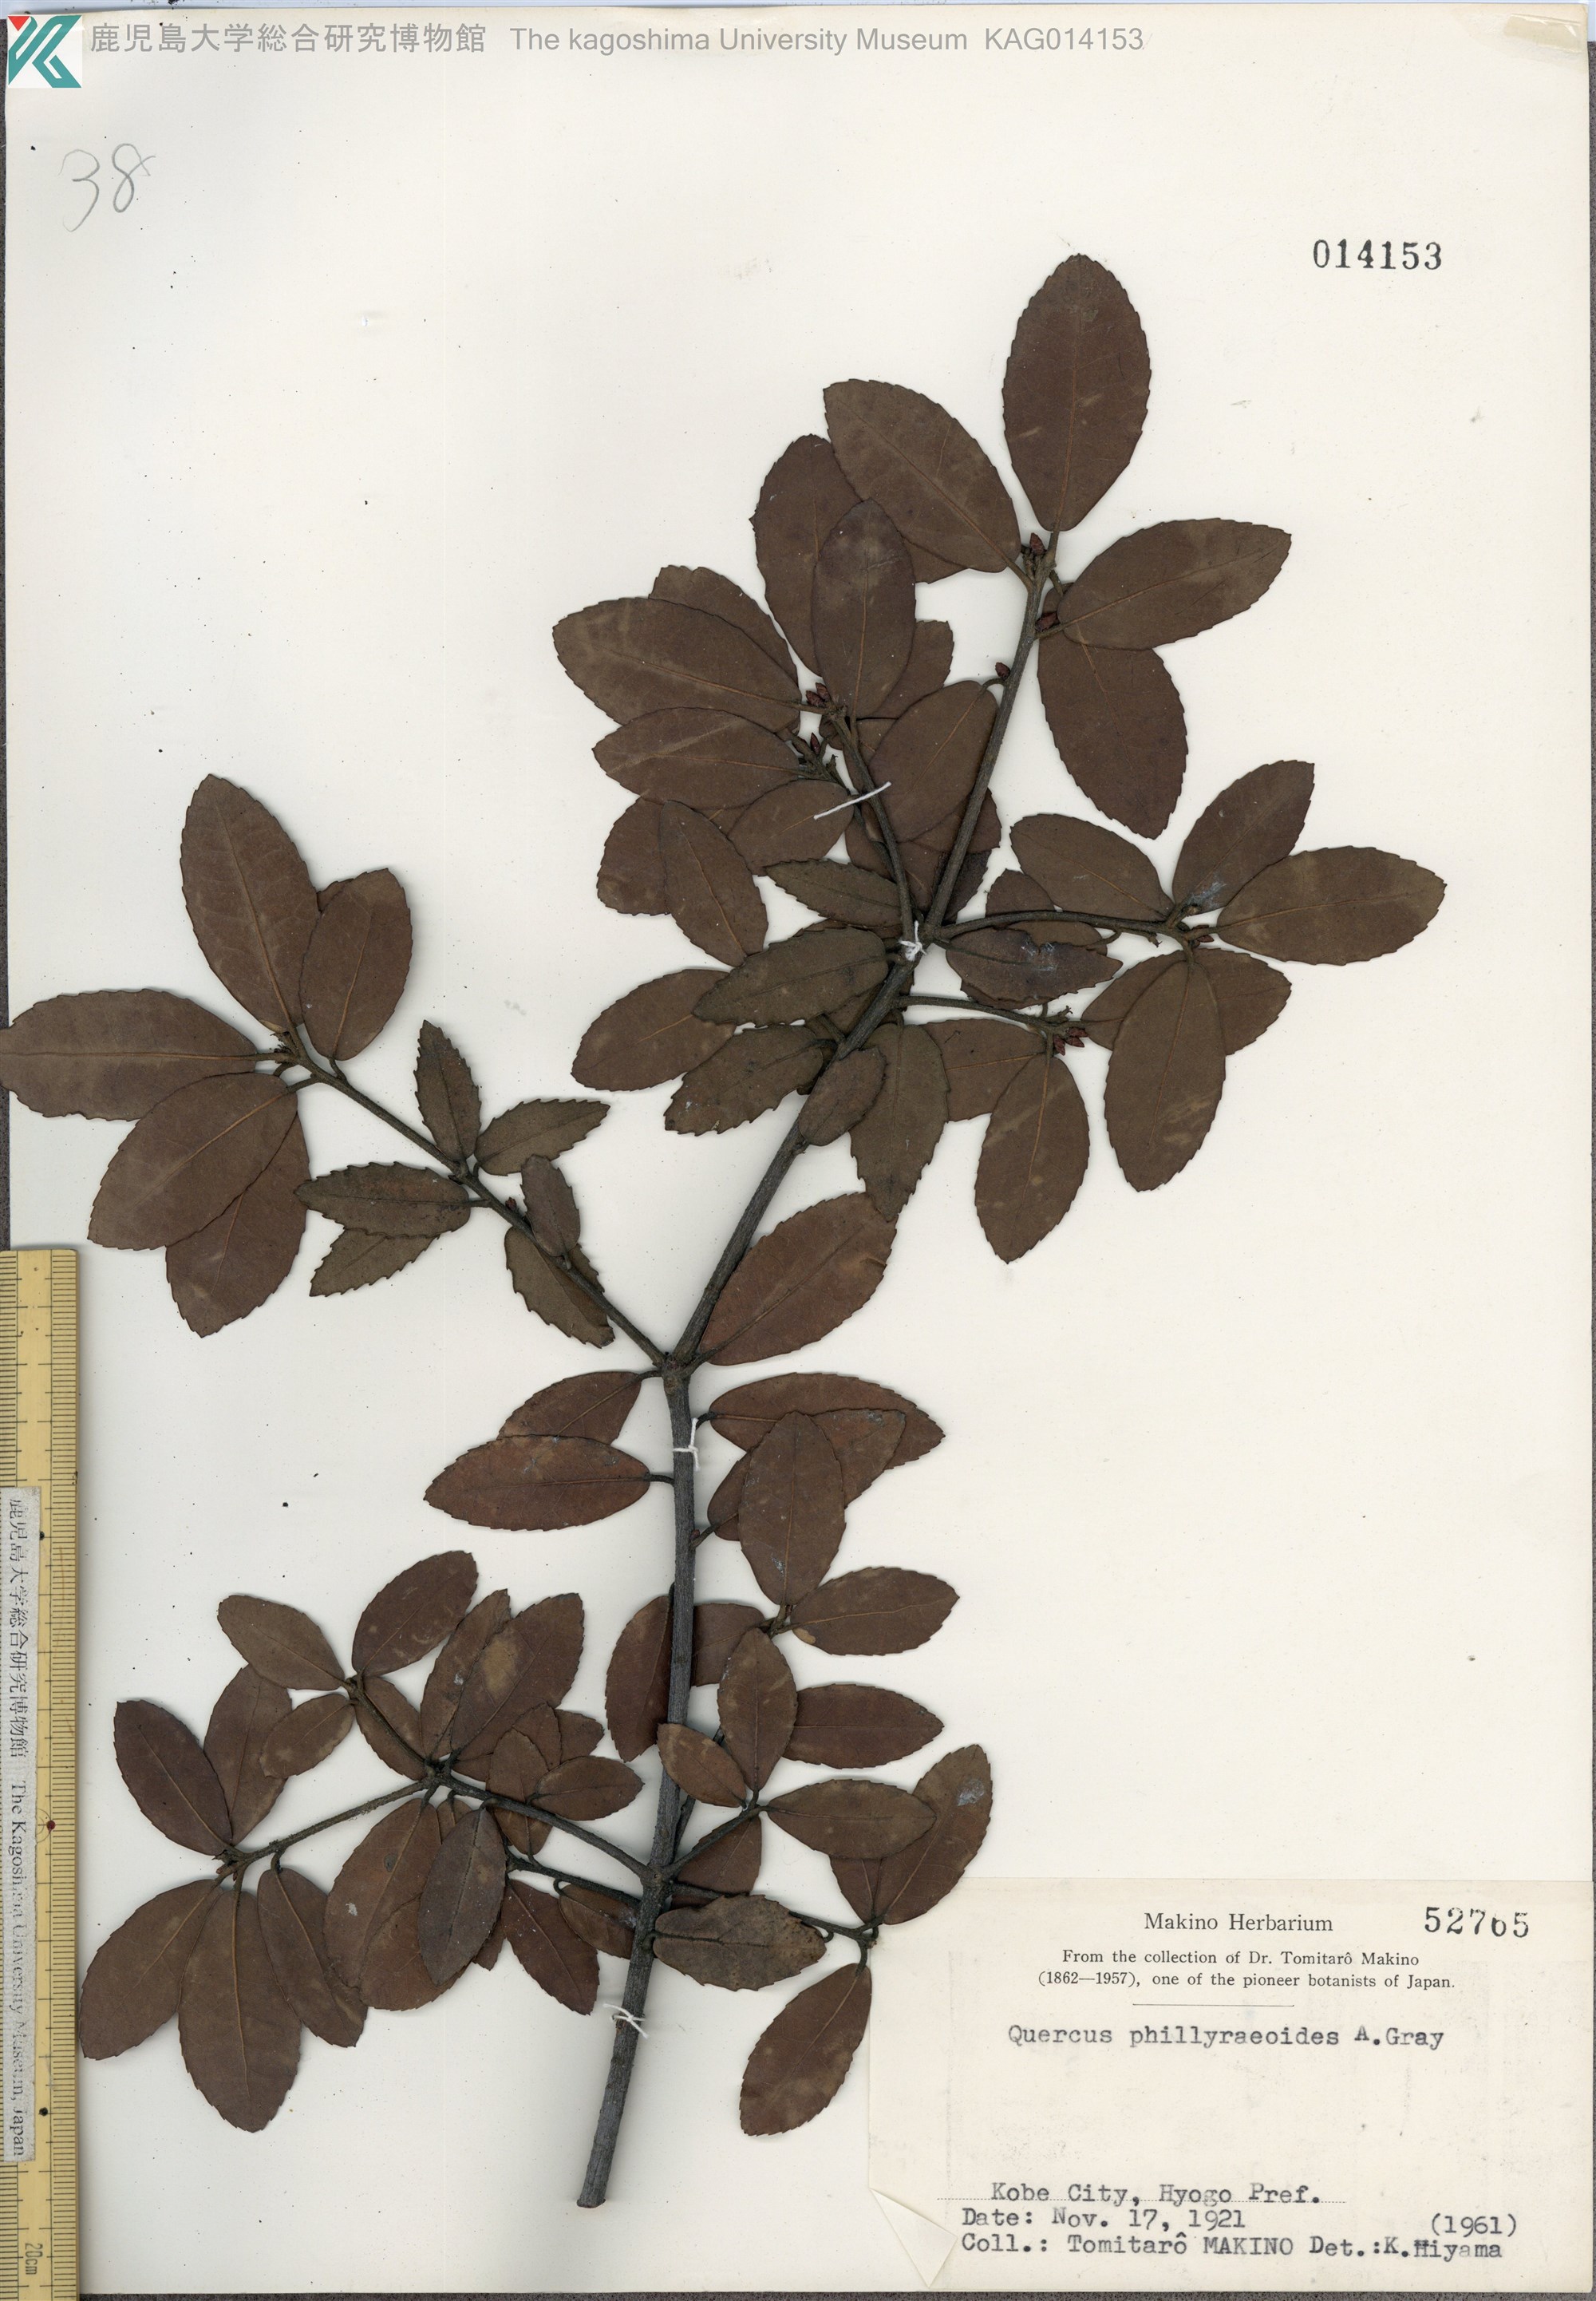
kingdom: Plantae
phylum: Tracheophyta
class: Magnoliopsida
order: Fagales
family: Fagaceae
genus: Quercus
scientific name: Quercus phillyraeoides
